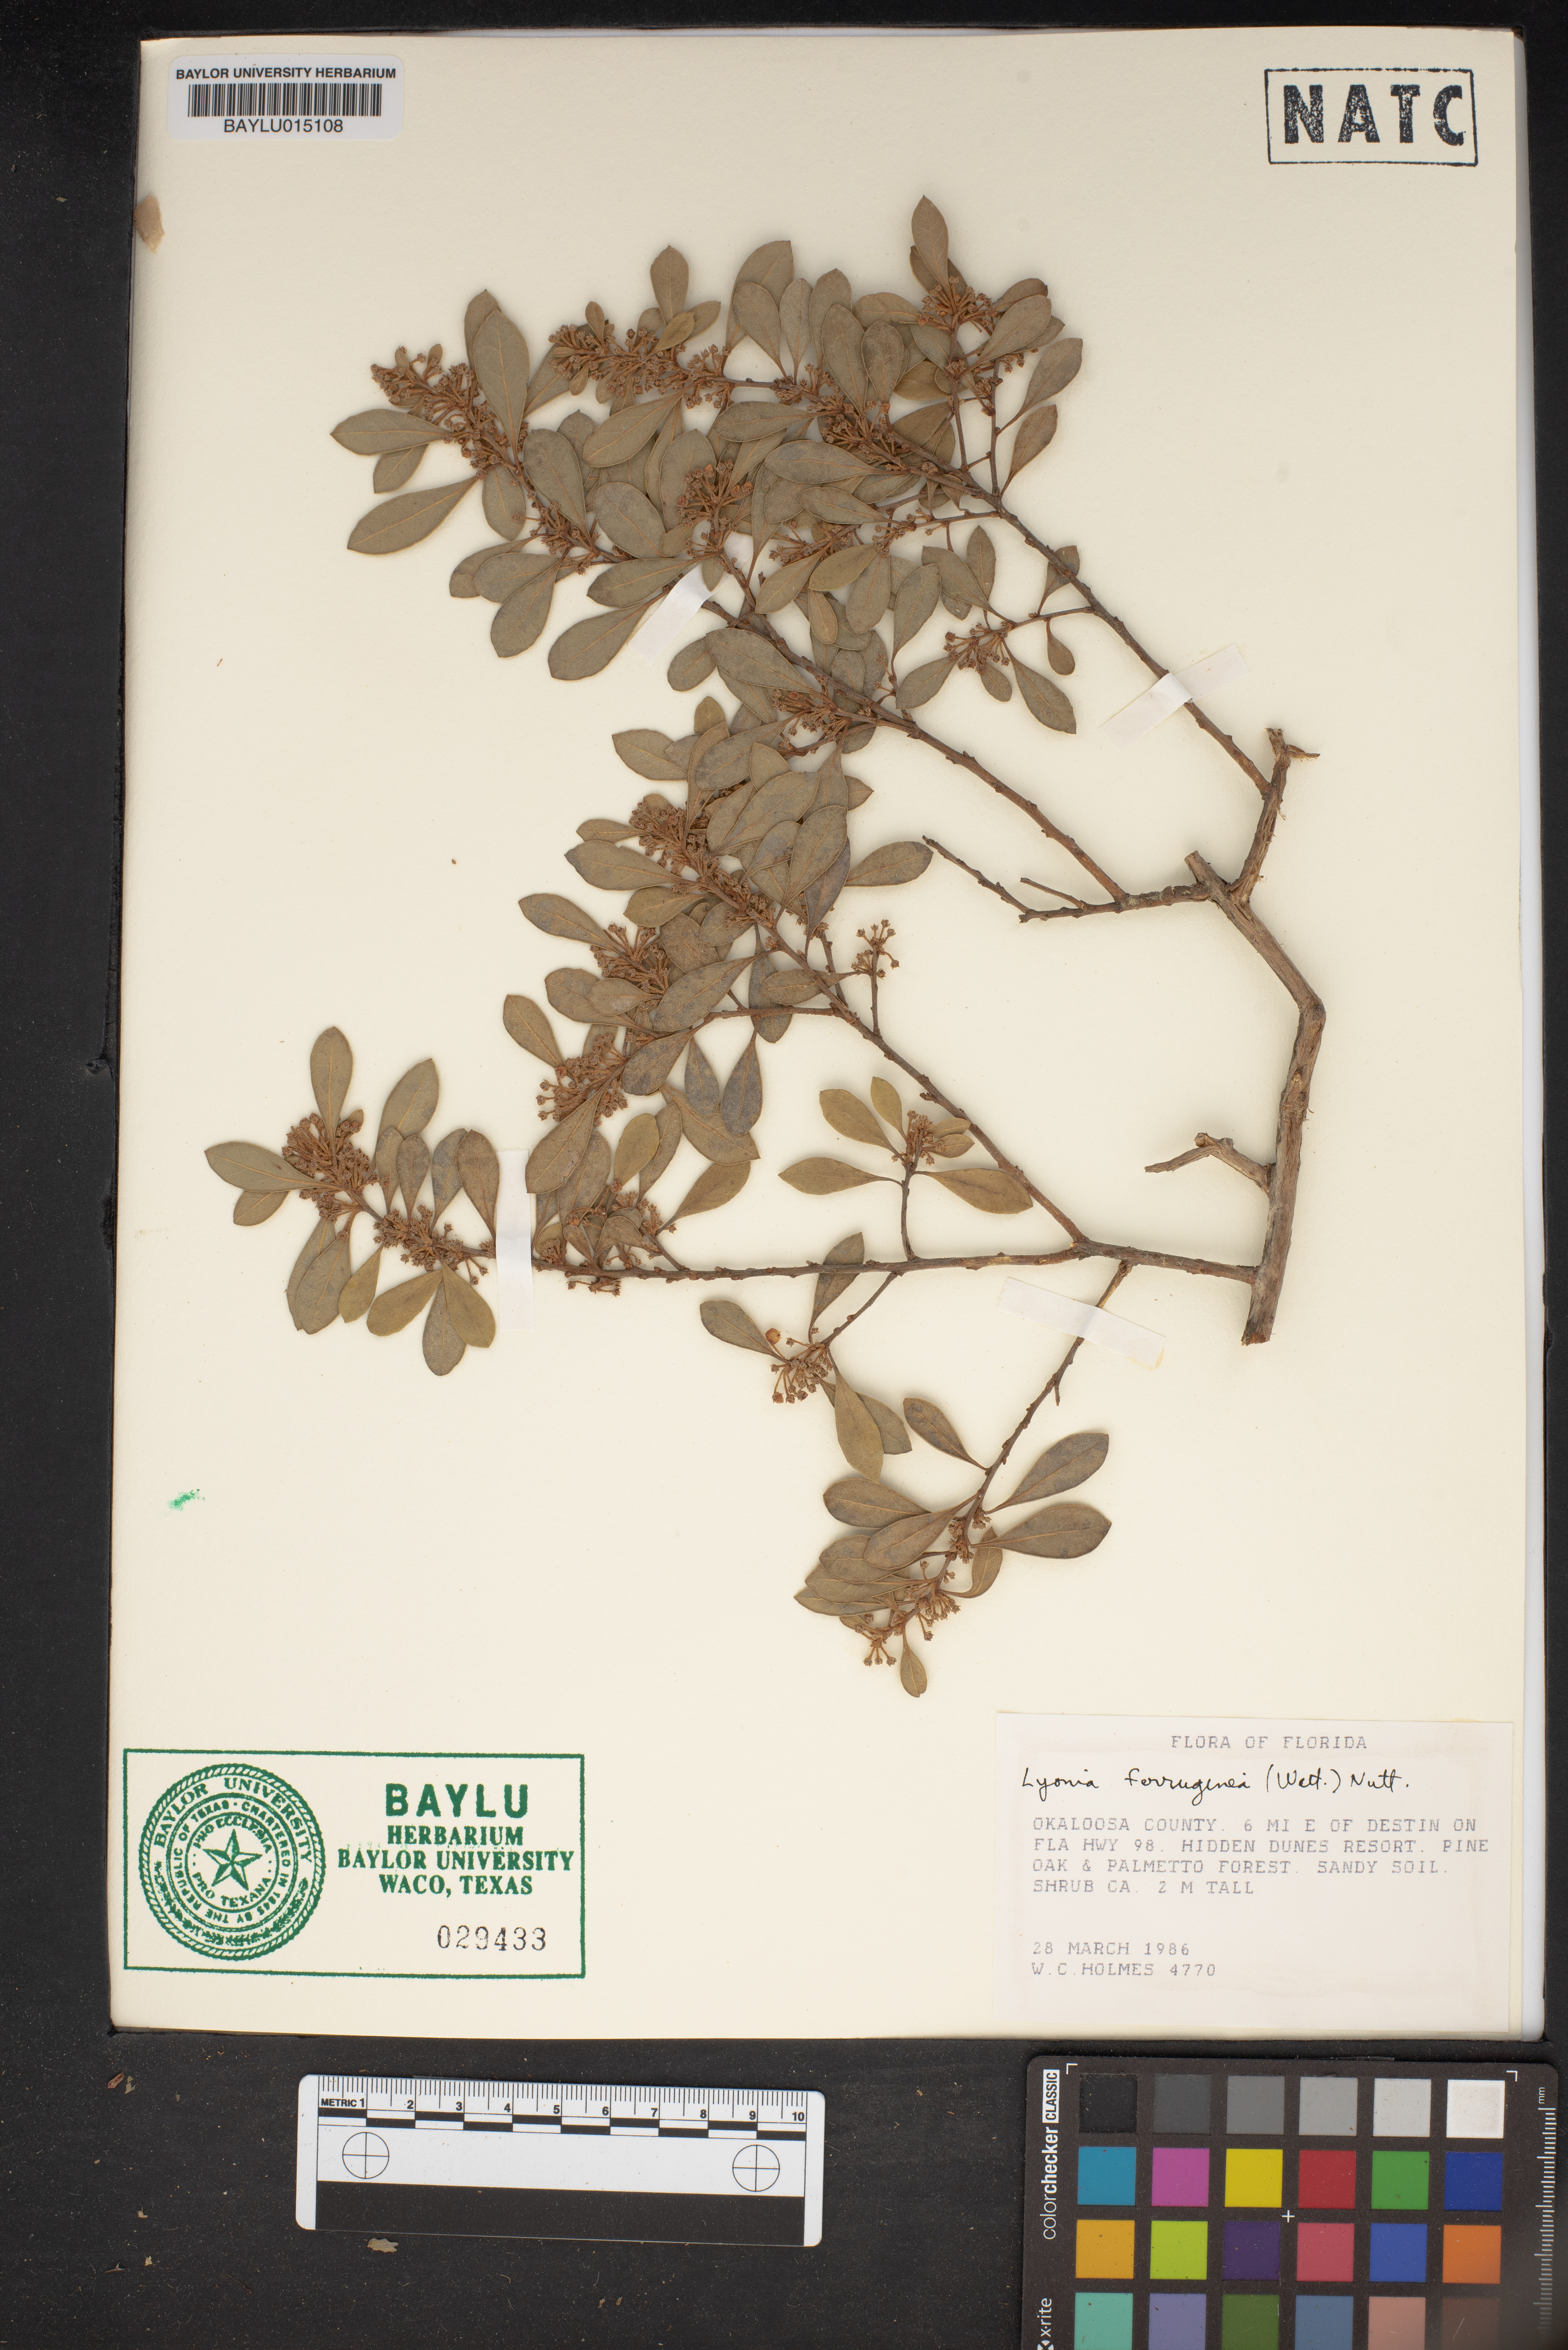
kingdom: Plantae
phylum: Tracheophyta
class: Magnoliopsida
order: Ericales
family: Ericaceae
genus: Lyonia
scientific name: Lyonia ferruginea
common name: Rusty lyonia
